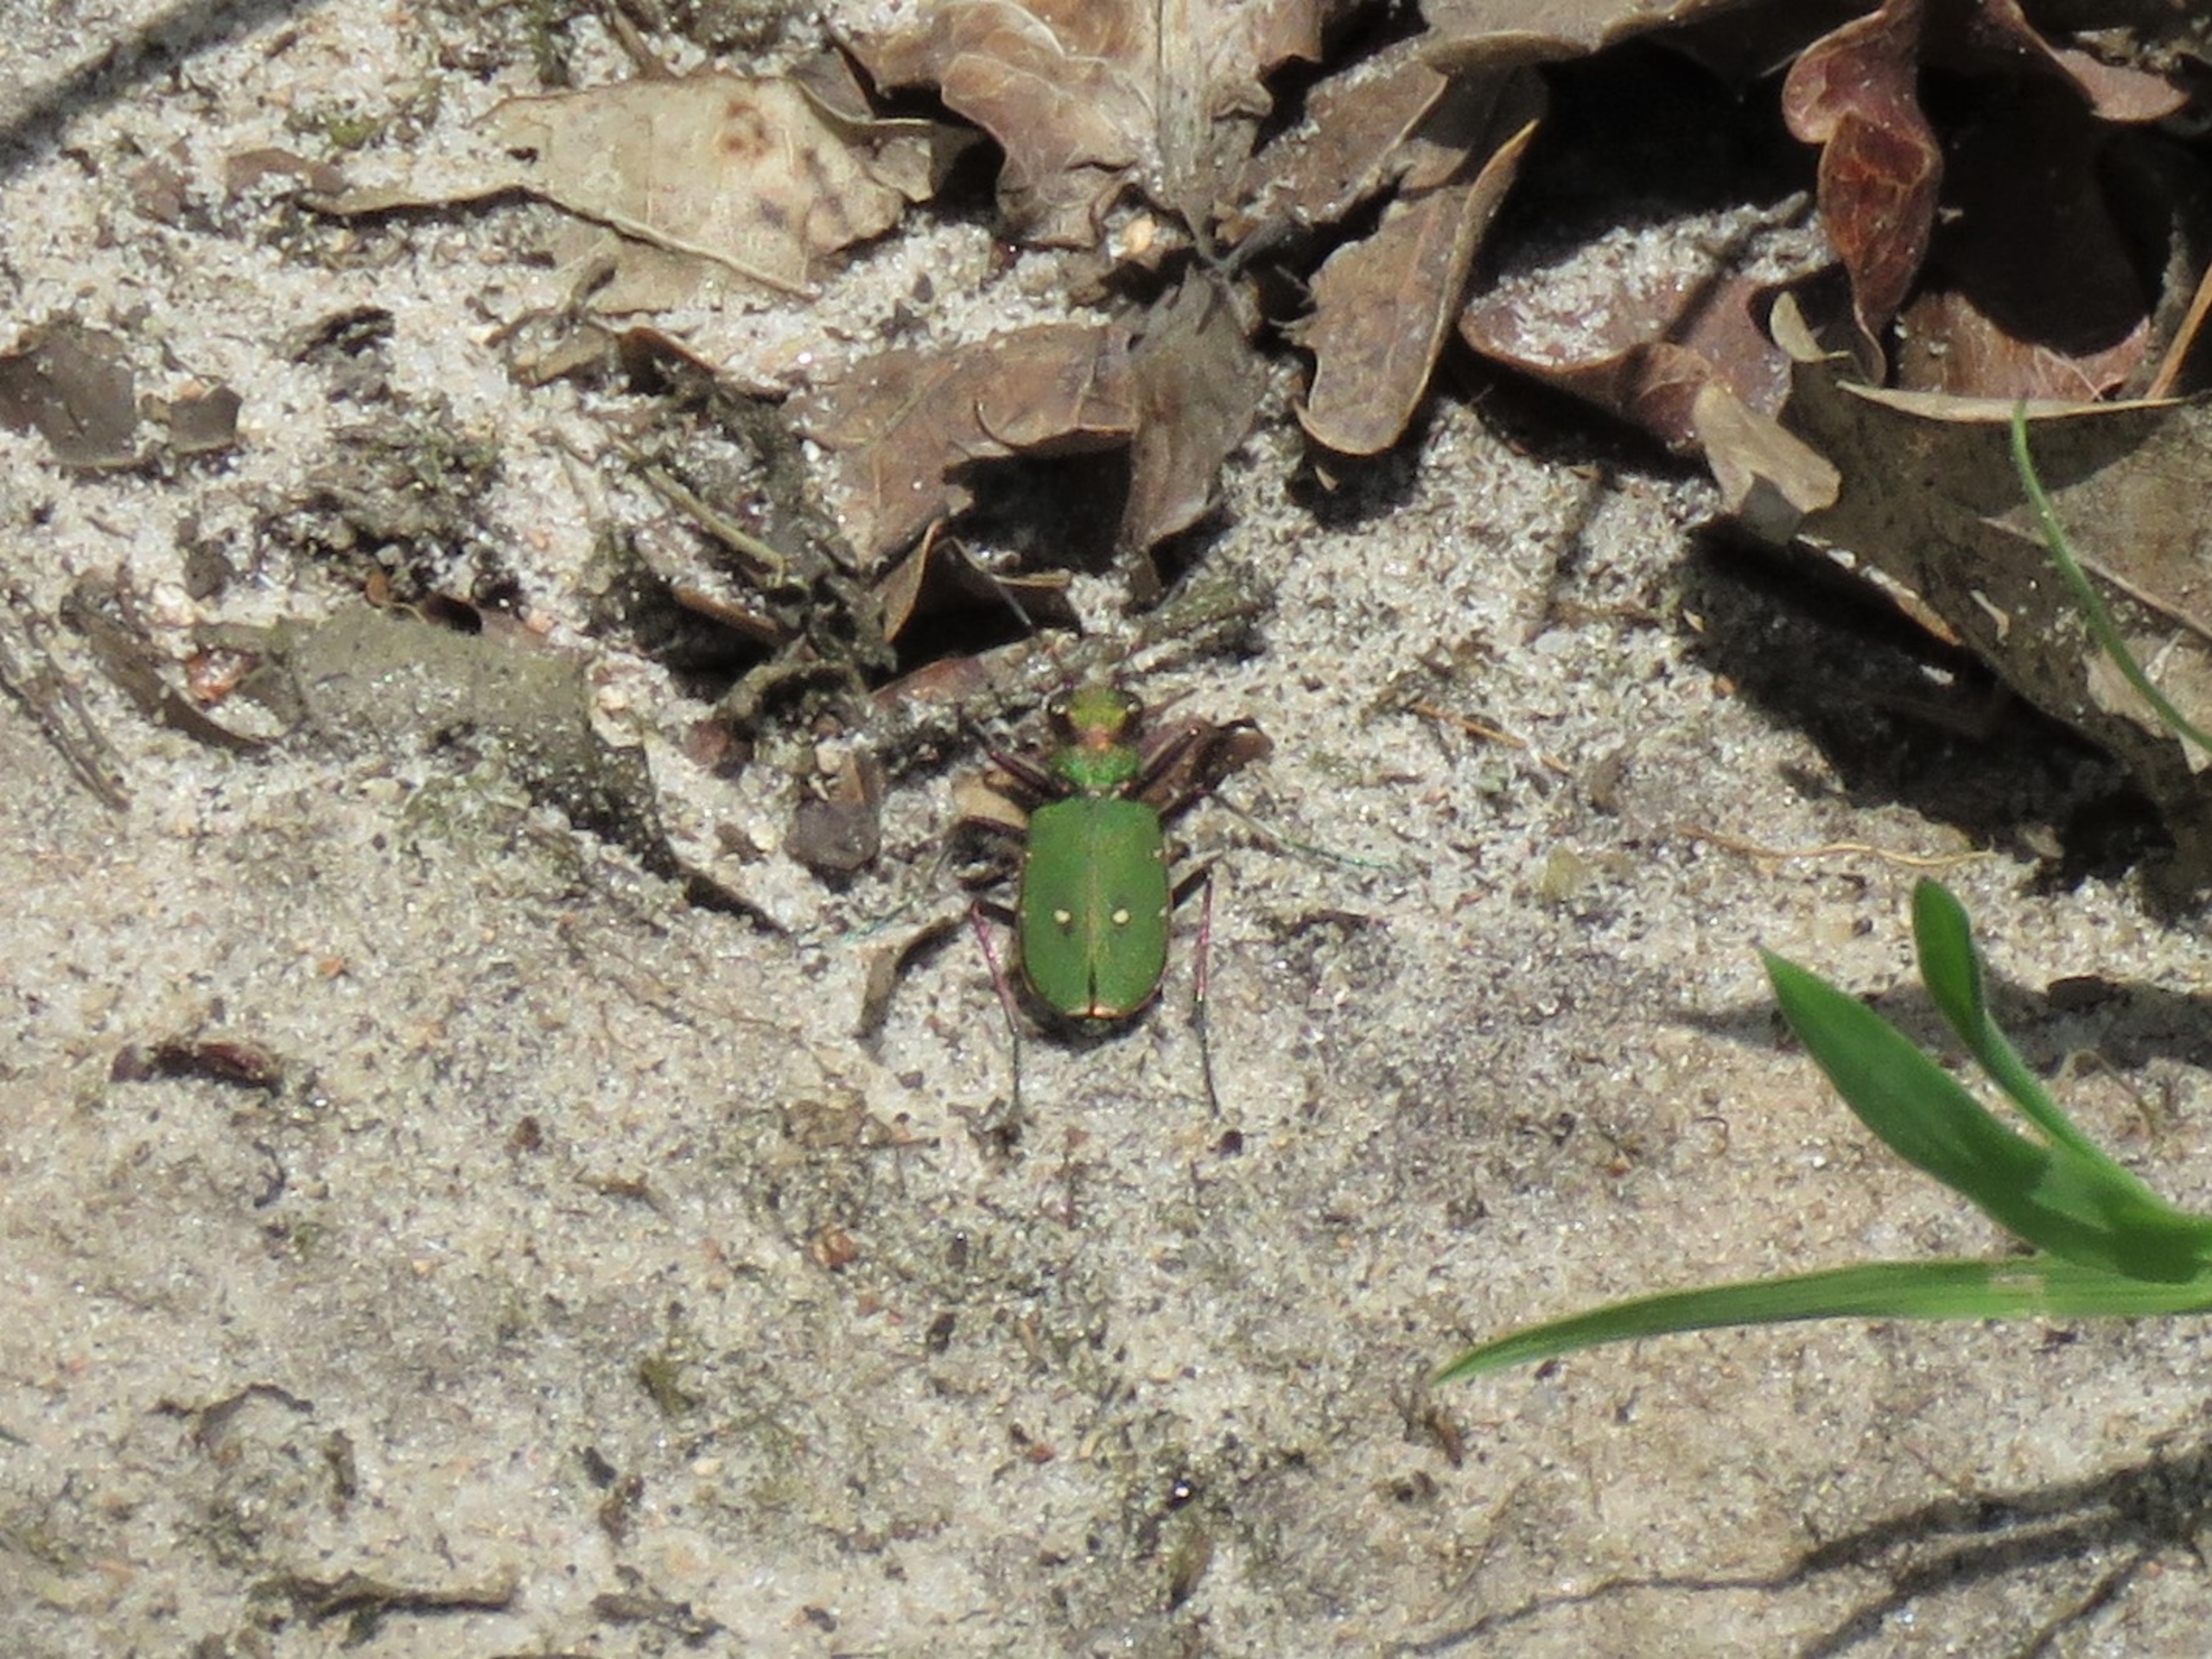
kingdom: Animalia
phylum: Arthropoda
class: Insecta
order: Coleoptera
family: Carabidae
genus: Cicindela
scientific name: Cicindela campestris
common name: Grøn sandspringer
